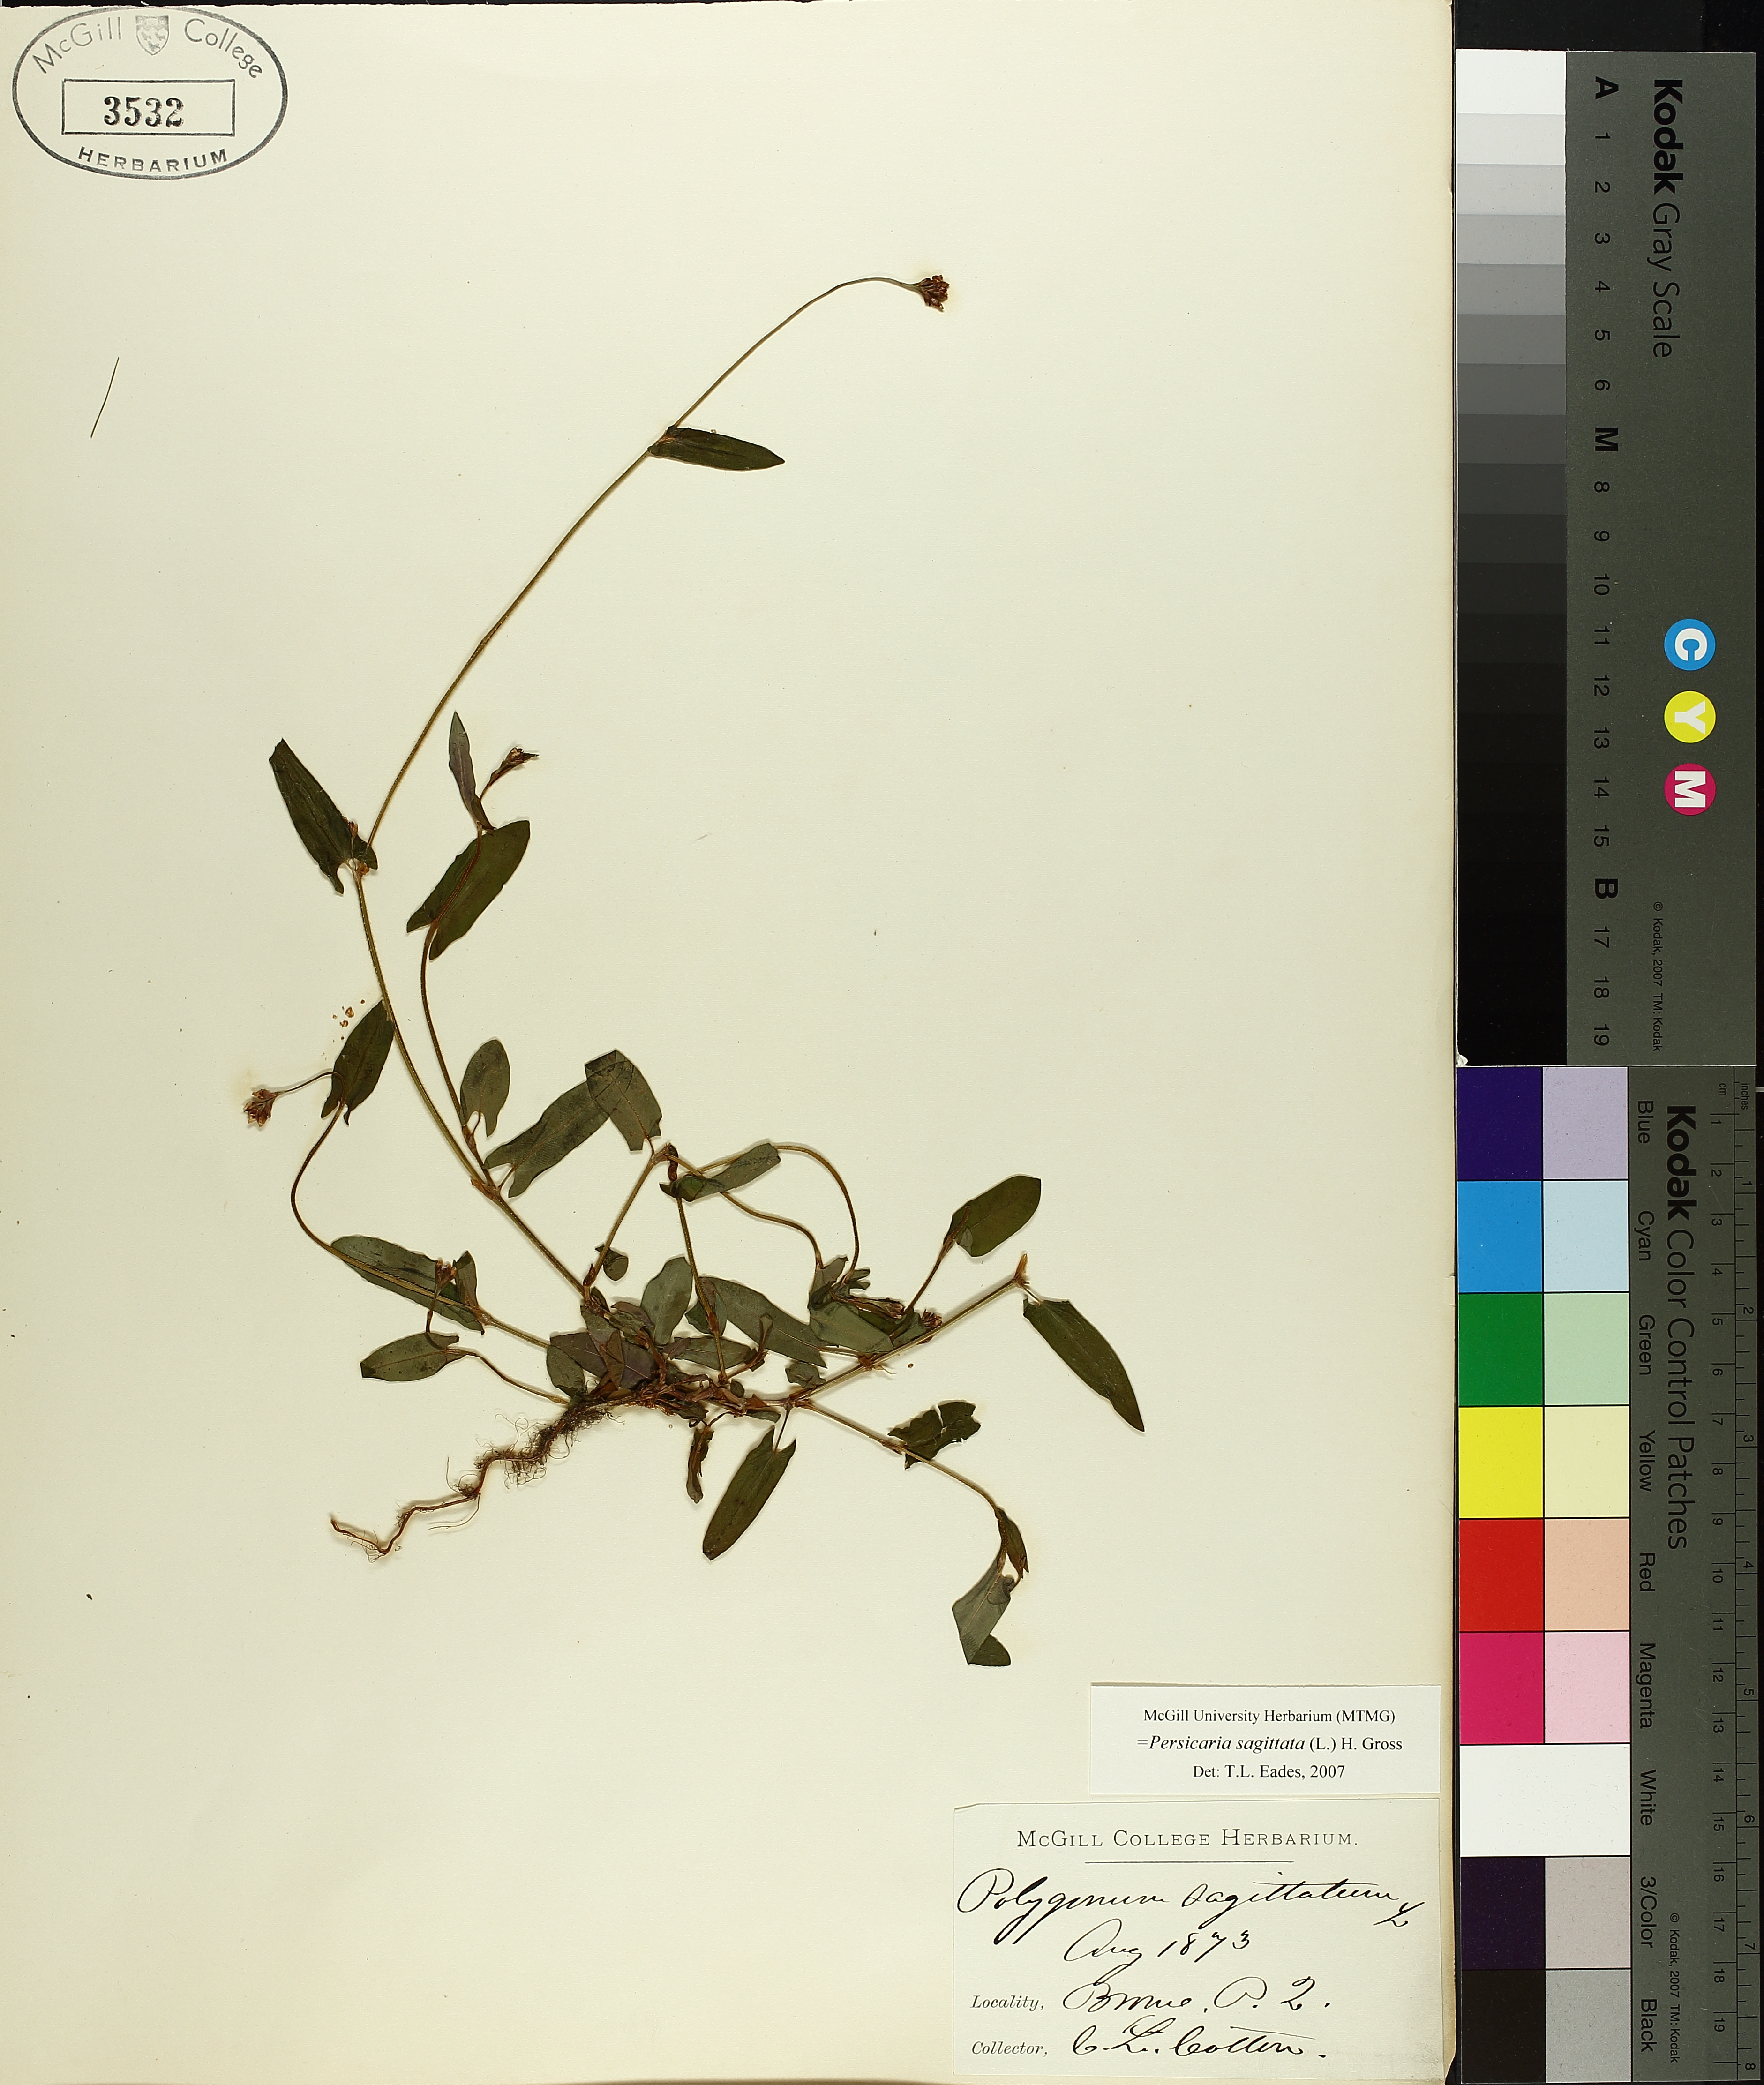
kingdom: Plantae
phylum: Tracheophyta
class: Magnoliopsida
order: Caryophyllales
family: Polygonaceae
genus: Persicaria
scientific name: Persicaria sagittata
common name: American tearthumb
